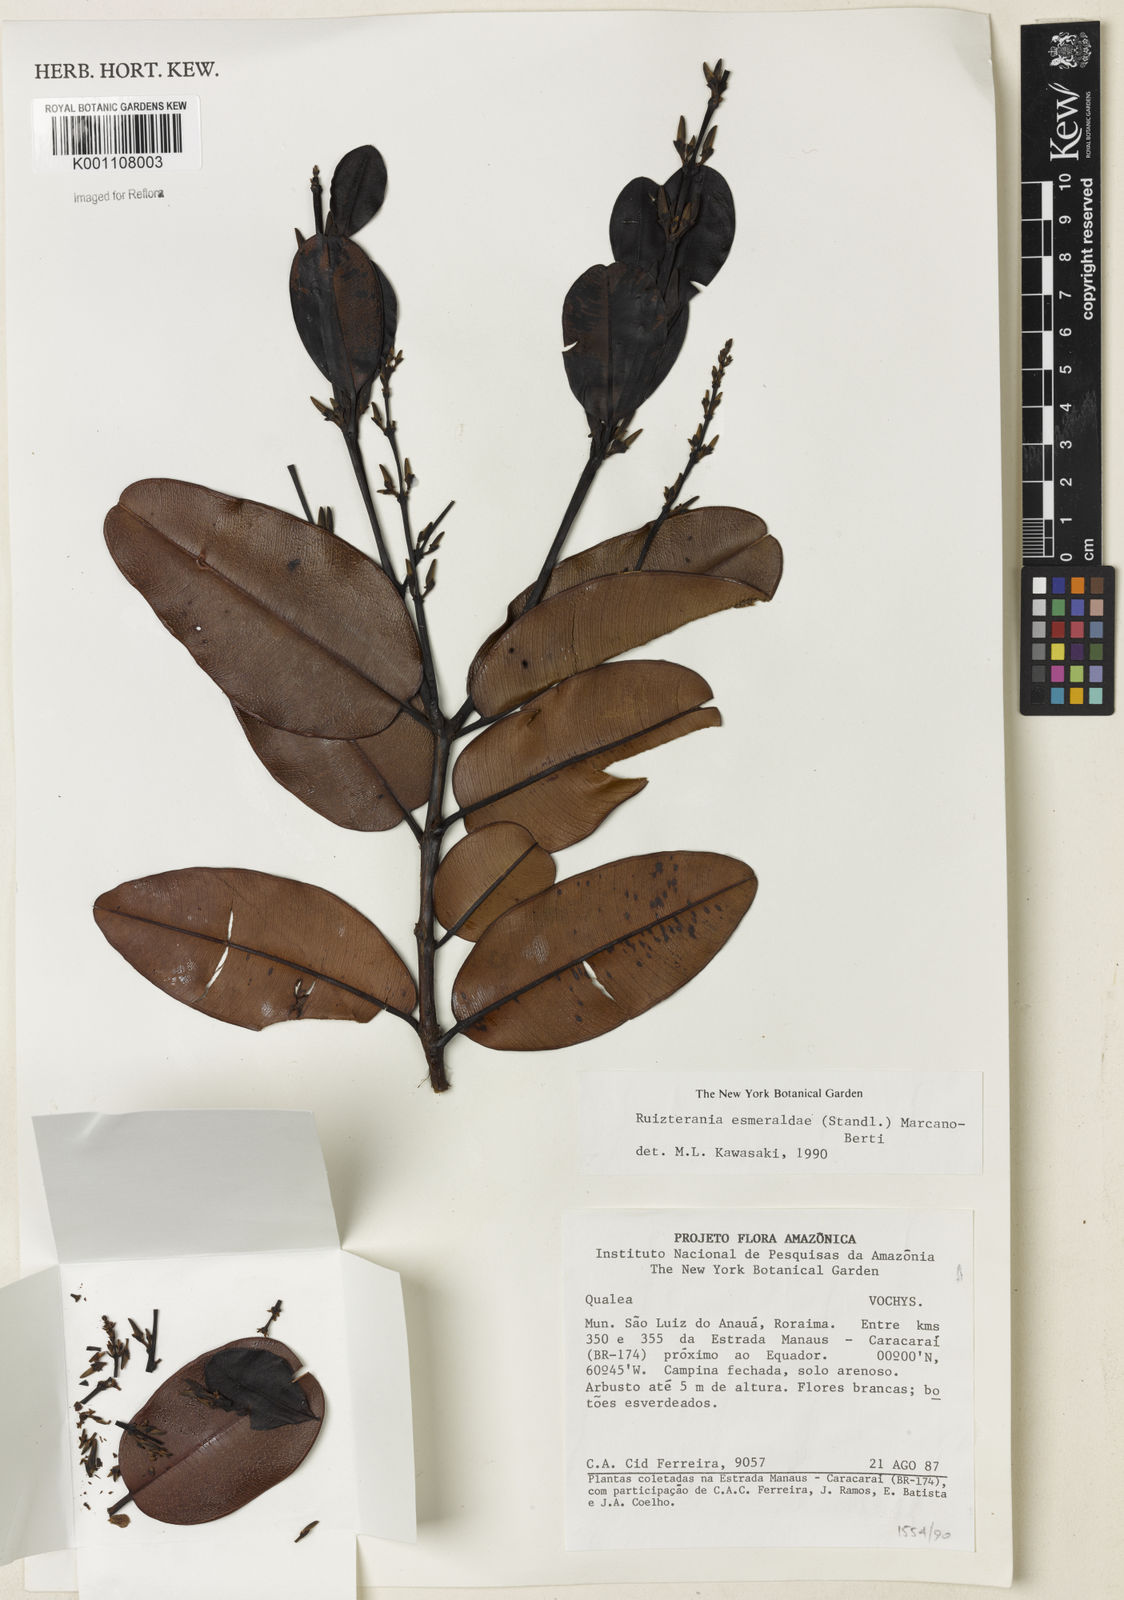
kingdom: Plantae
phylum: Tracheophyta
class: Magnoliopsida
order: Myrtales
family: Vochysiaceae
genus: Ruizterania
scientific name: Ruizterania esmeraldae
